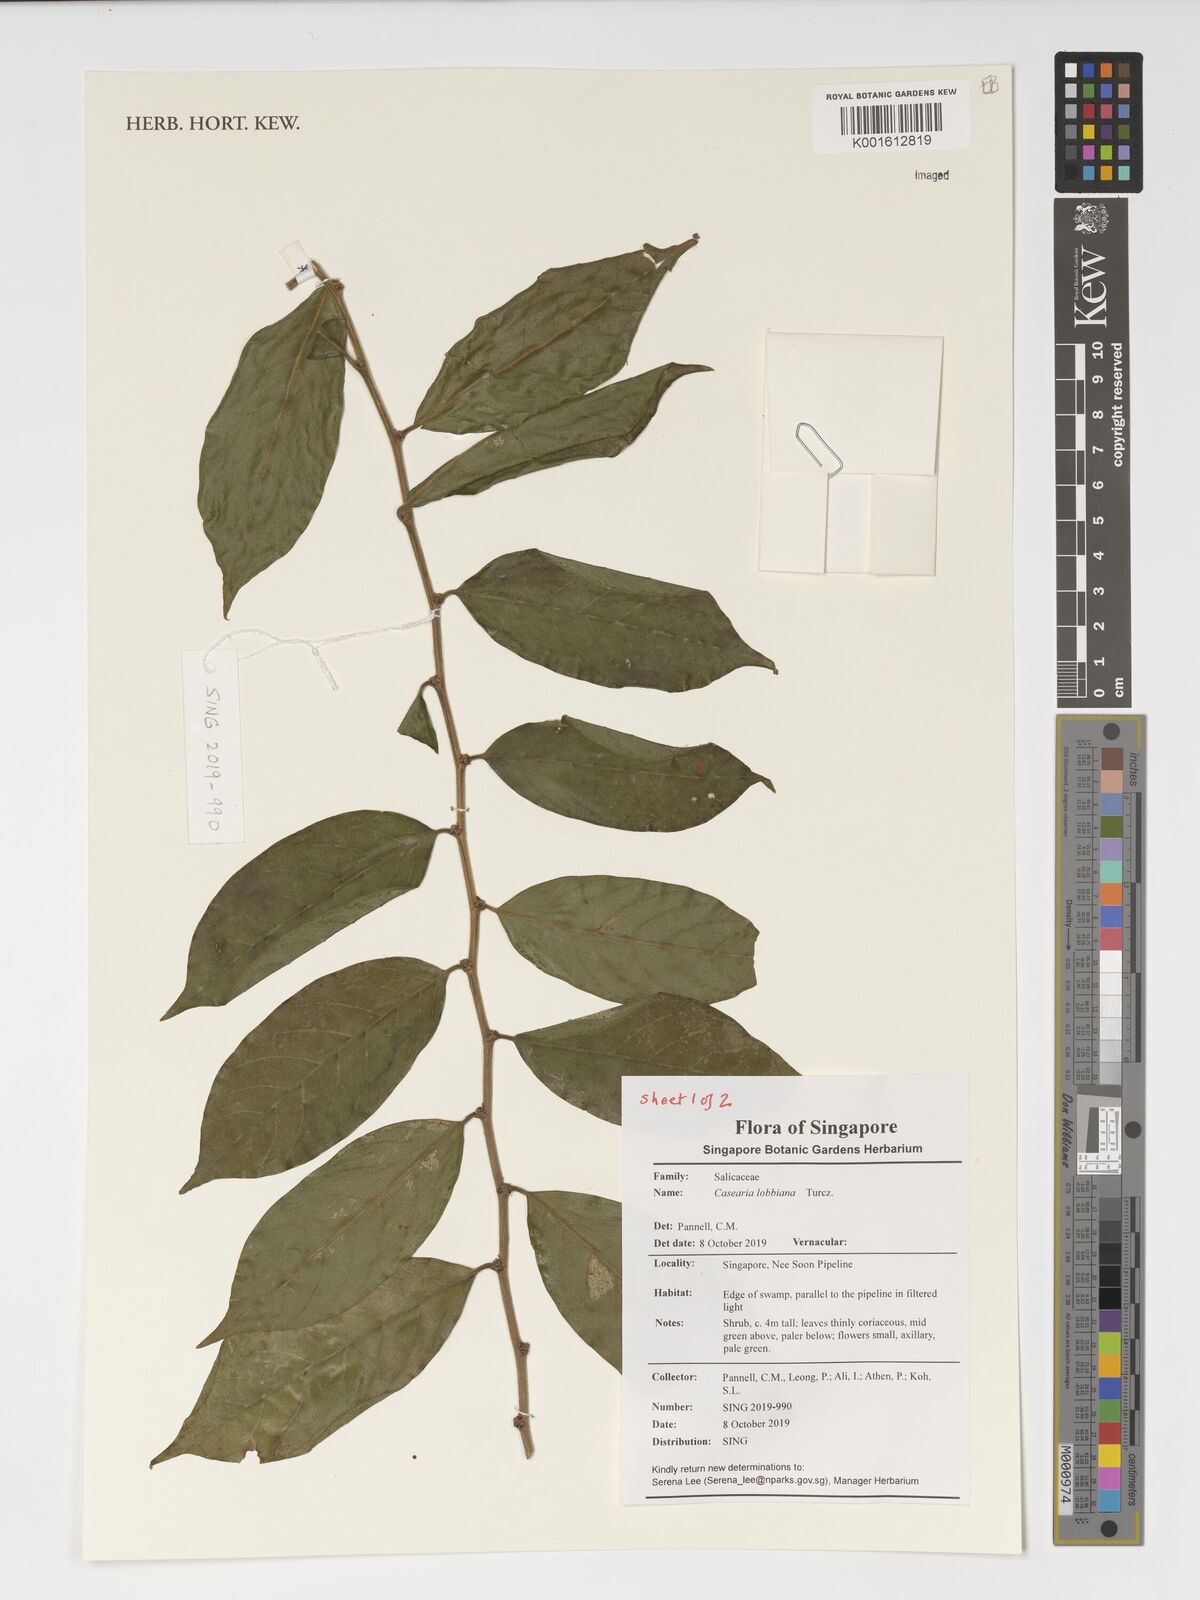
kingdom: Plantae
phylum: Tracheophyta
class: Magnoliopsida
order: Malpighiales
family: Salicaceae
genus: Casearia
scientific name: Casearia lobbiana
